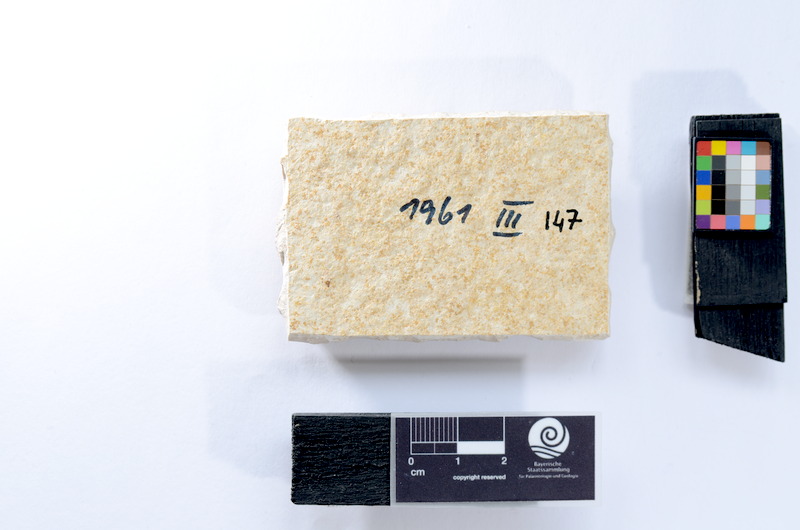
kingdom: Animalia
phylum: Chordata
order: Salmoniformes
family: Orthogonikleithridae
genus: Leptolepides
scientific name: Leptolepides
